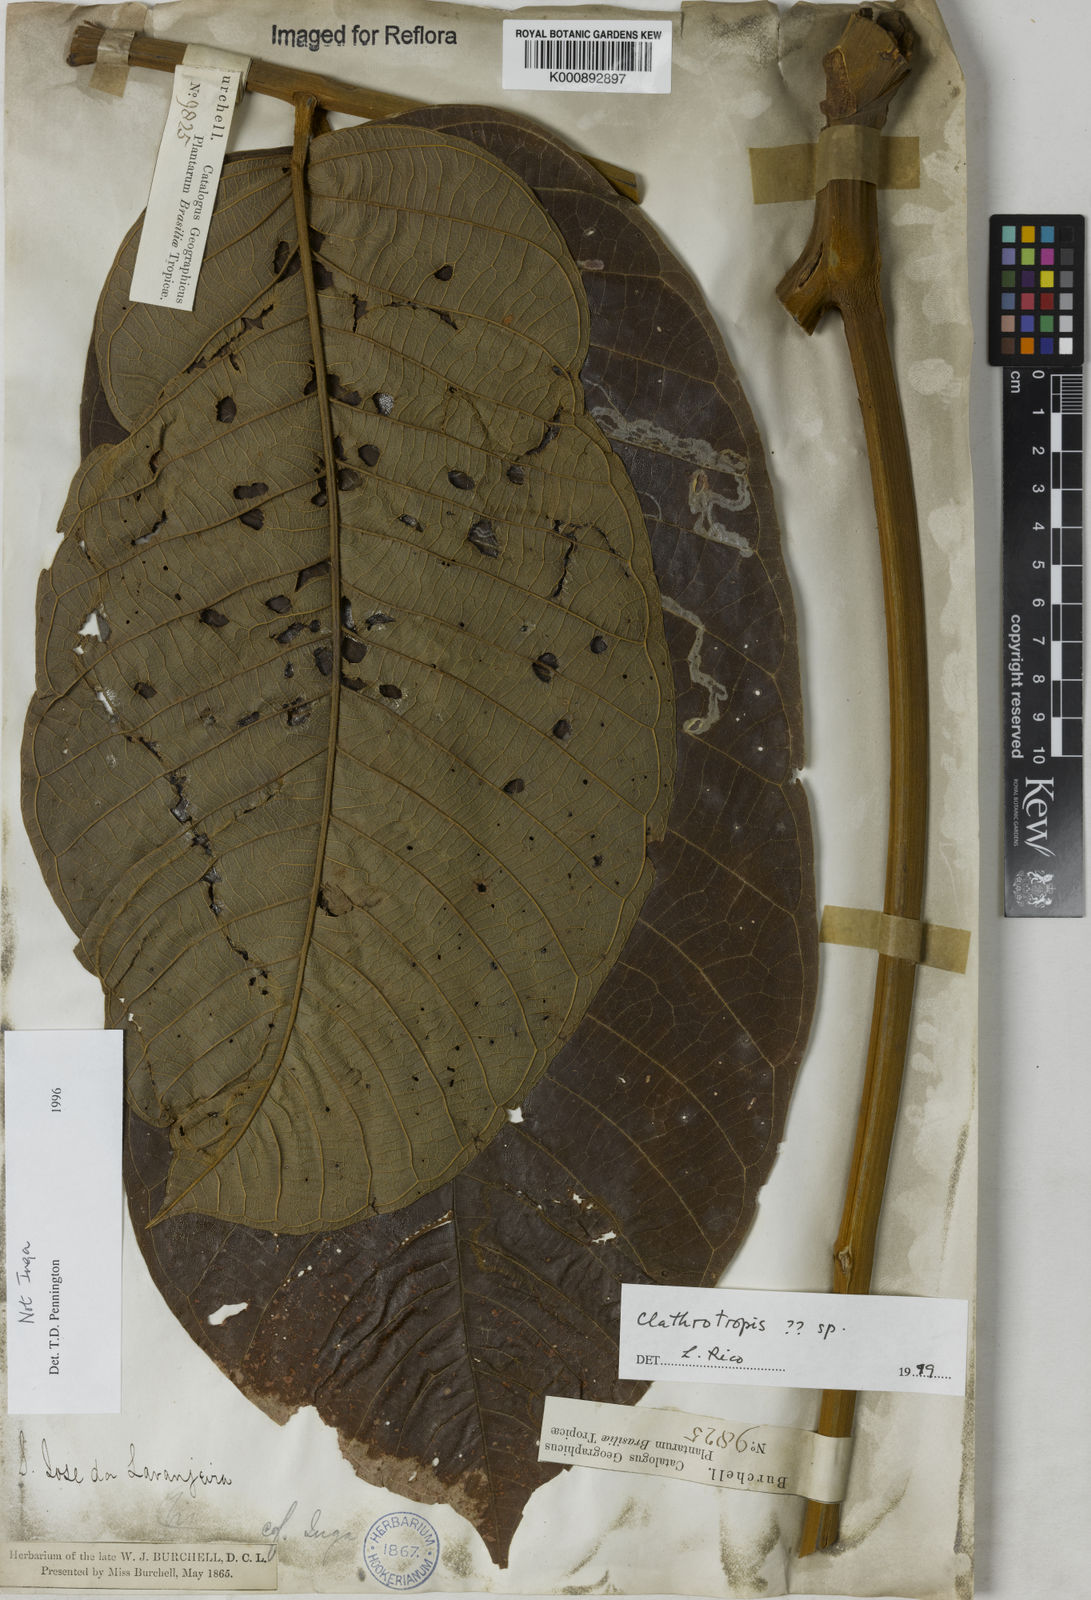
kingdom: Plantae
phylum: Tracheophyta
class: Magnoliopsida
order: Fabales
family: Fabaceae
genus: Clathrotropis
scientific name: Clathrotropis
